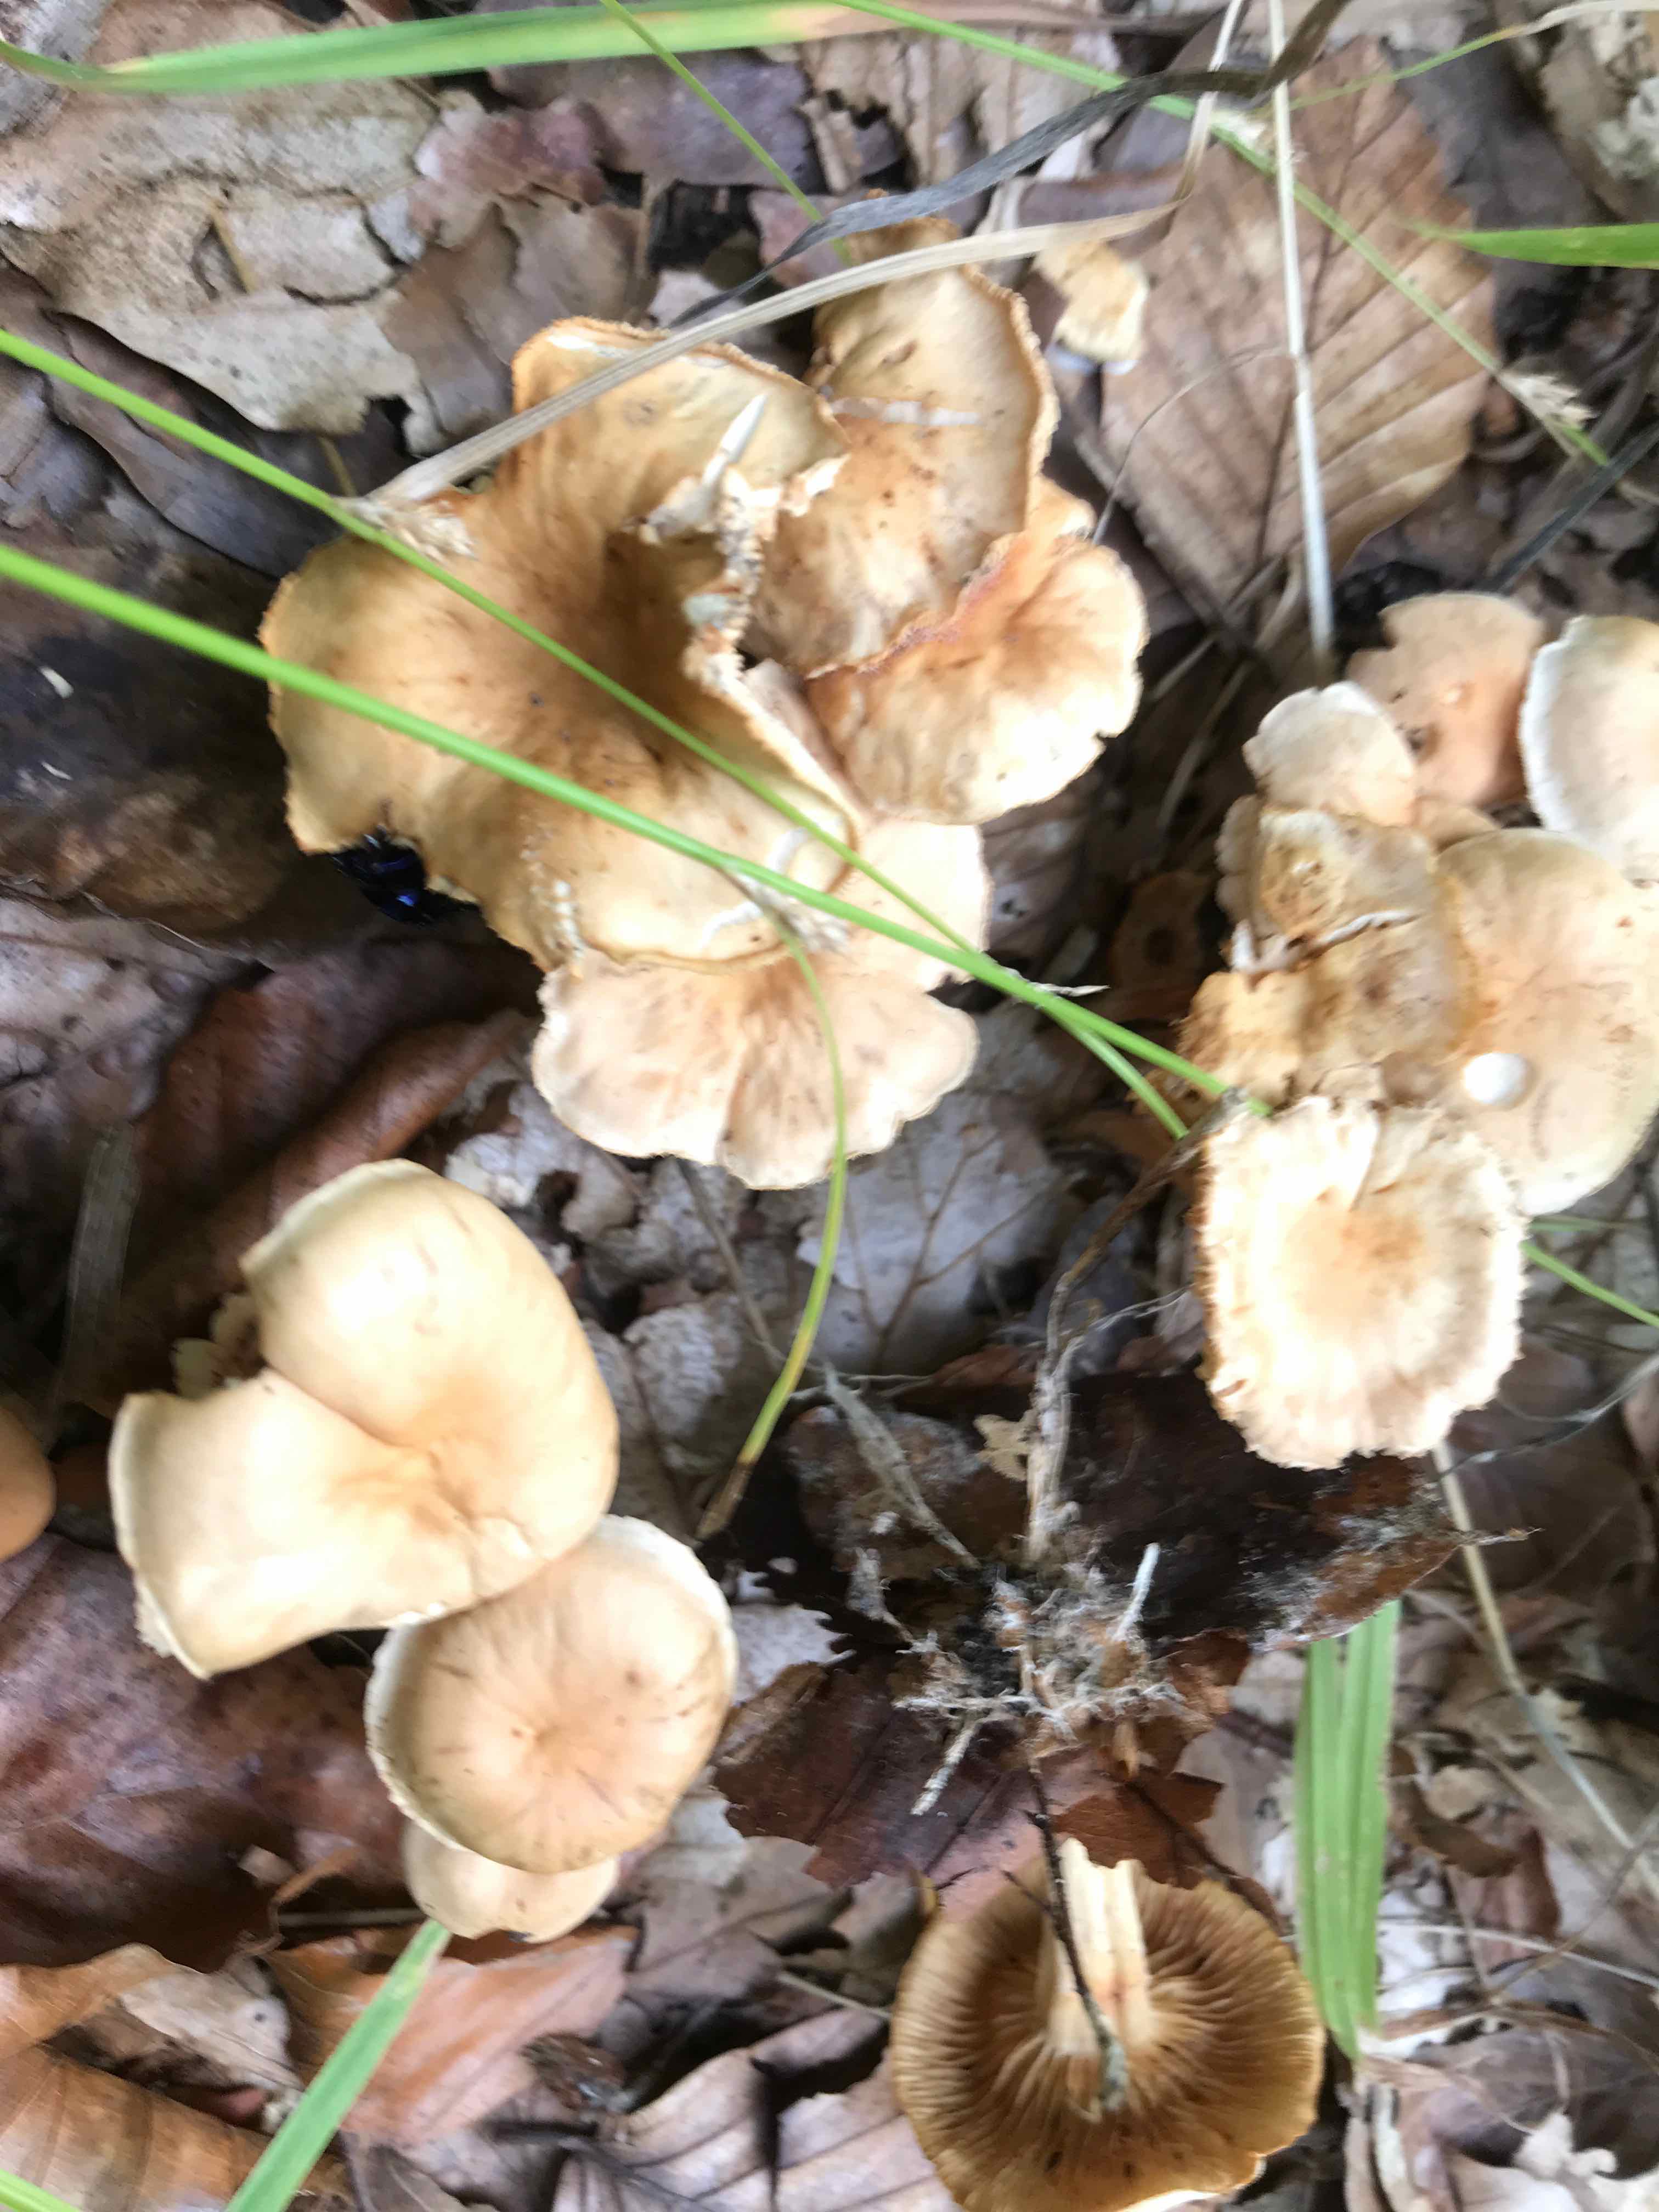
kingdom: Fungi
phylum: Basidiomycota
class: Agaricomycetes
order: Agaricales
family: Omphalotaceae
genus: Gymnopus
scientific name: Gymnopus dryophilus
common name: løv-fladhat
